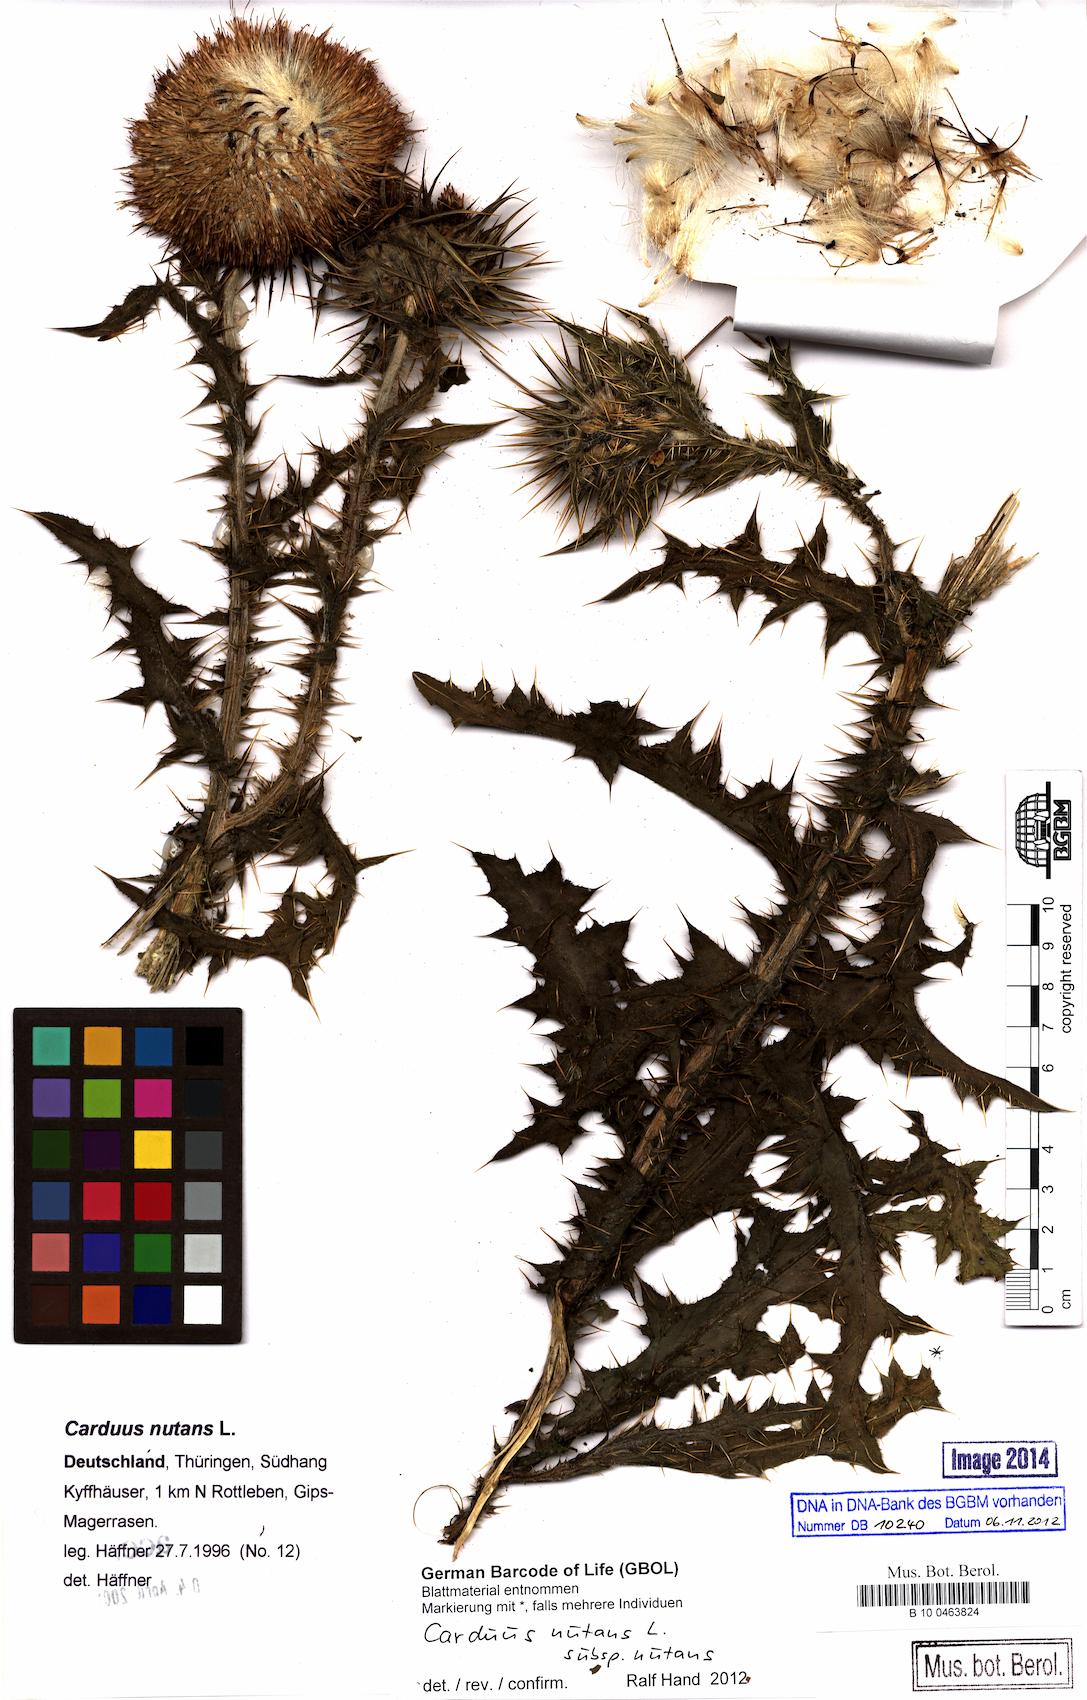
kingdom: Plantae
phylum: Tracheophyta
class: Magnoliopsida
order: Asterales
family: Asteraceae
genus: Carduus
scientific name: Carduus nutans
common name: Musk thistle
